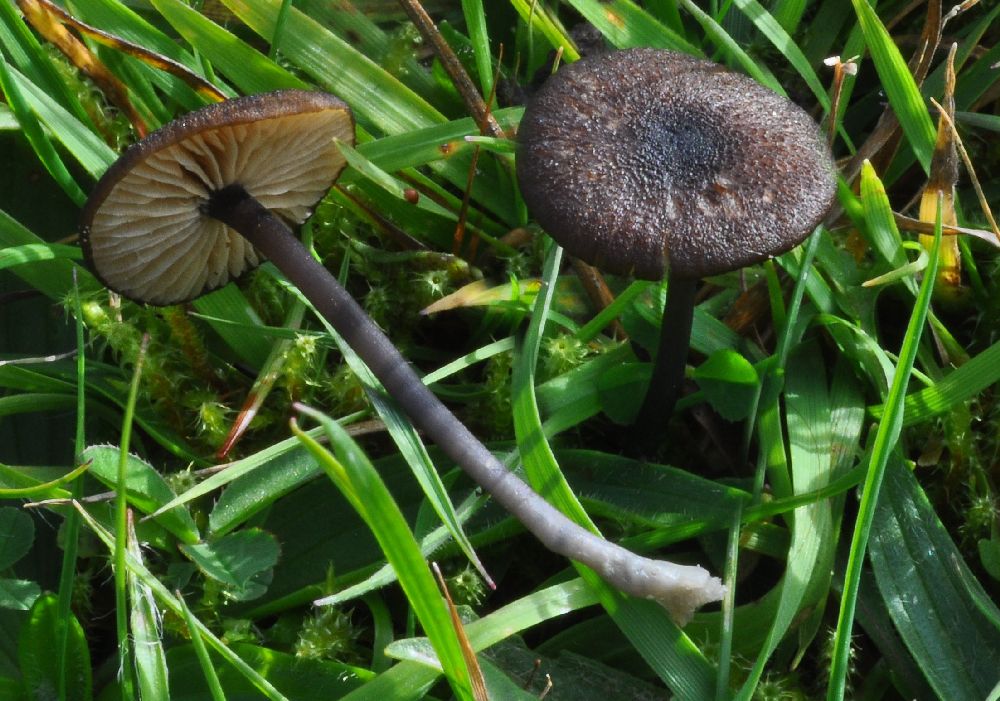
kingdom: Fungi
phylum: Basidiomycota
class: Agaricomycetes
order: Agaricales
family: Entolomataceae
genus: Entoloma
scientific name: Entoloma poliopus
